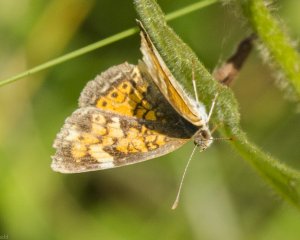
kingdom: Animalia
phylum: Arthropoda
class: Insecta
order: Lepidoptera
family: Nymphalidae
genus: Phyciodes
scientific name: Phyciodes tharos
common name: Northern Crescent
